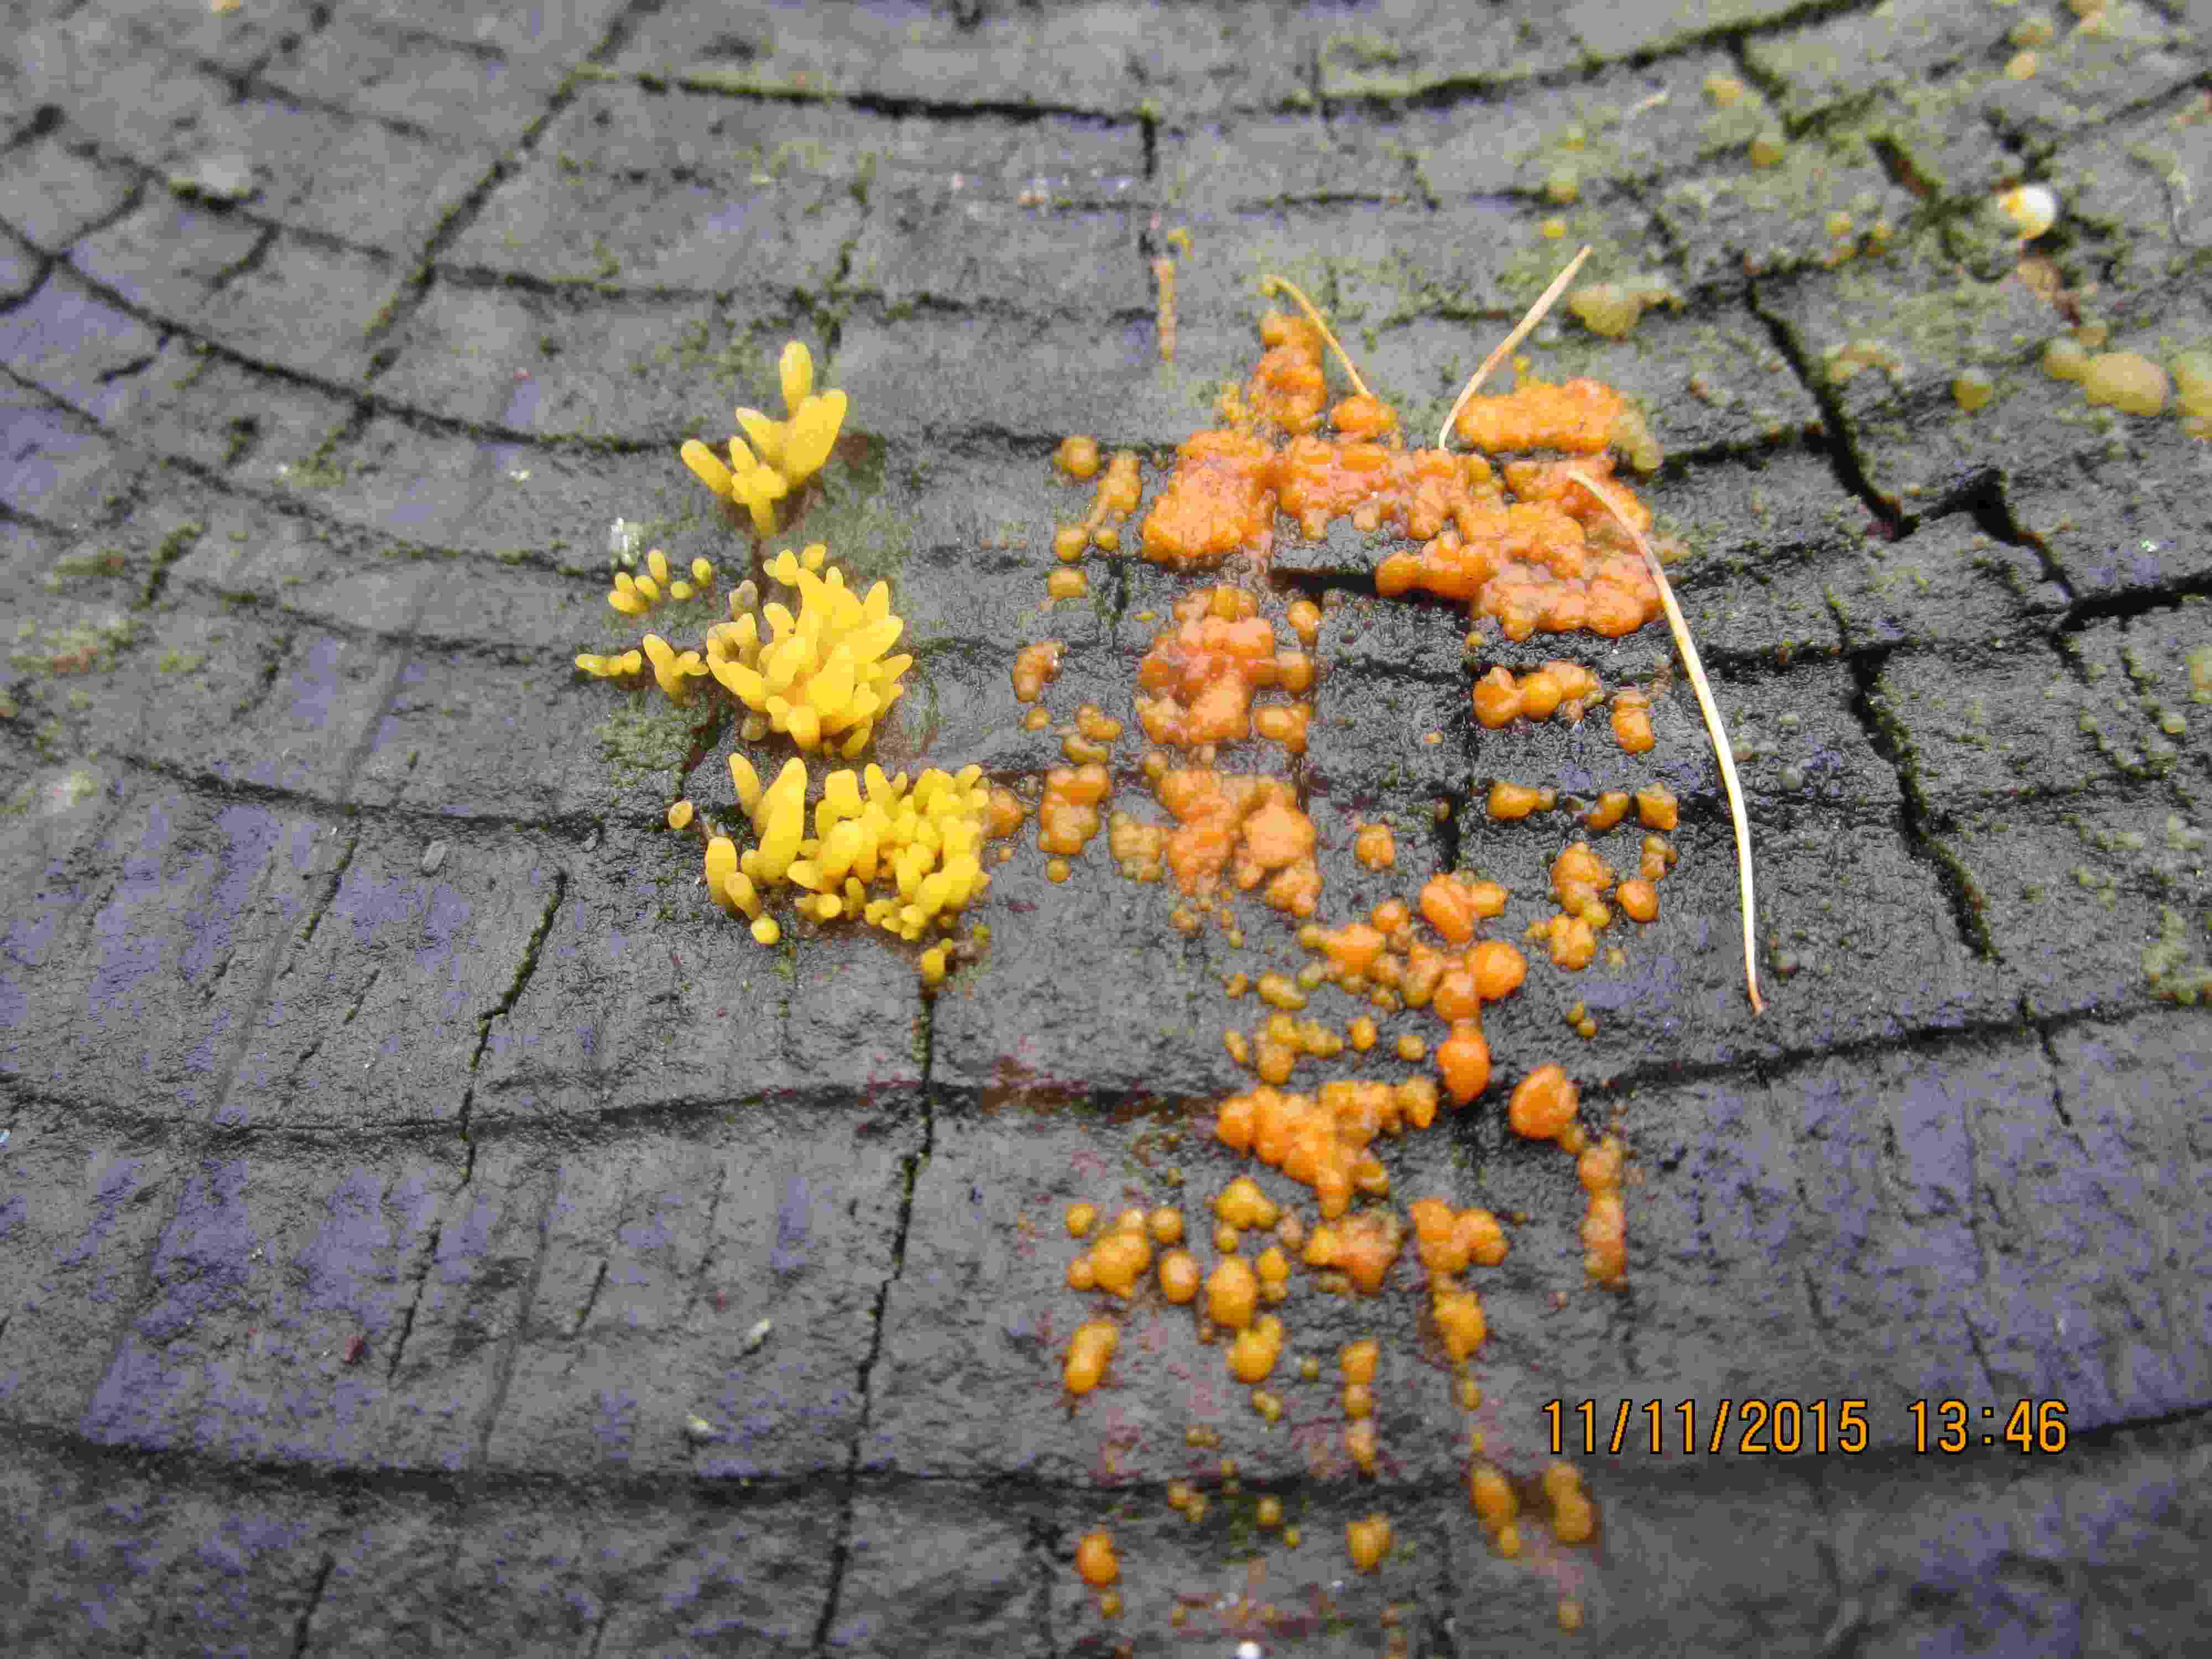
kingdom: Fungi
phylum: Basidiomycota
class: Dacrymycetes
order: Dacrymycetales
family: Dacrymycetaceae
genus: Calocera
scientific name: Calocera cornea
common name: liden guldgaffel
